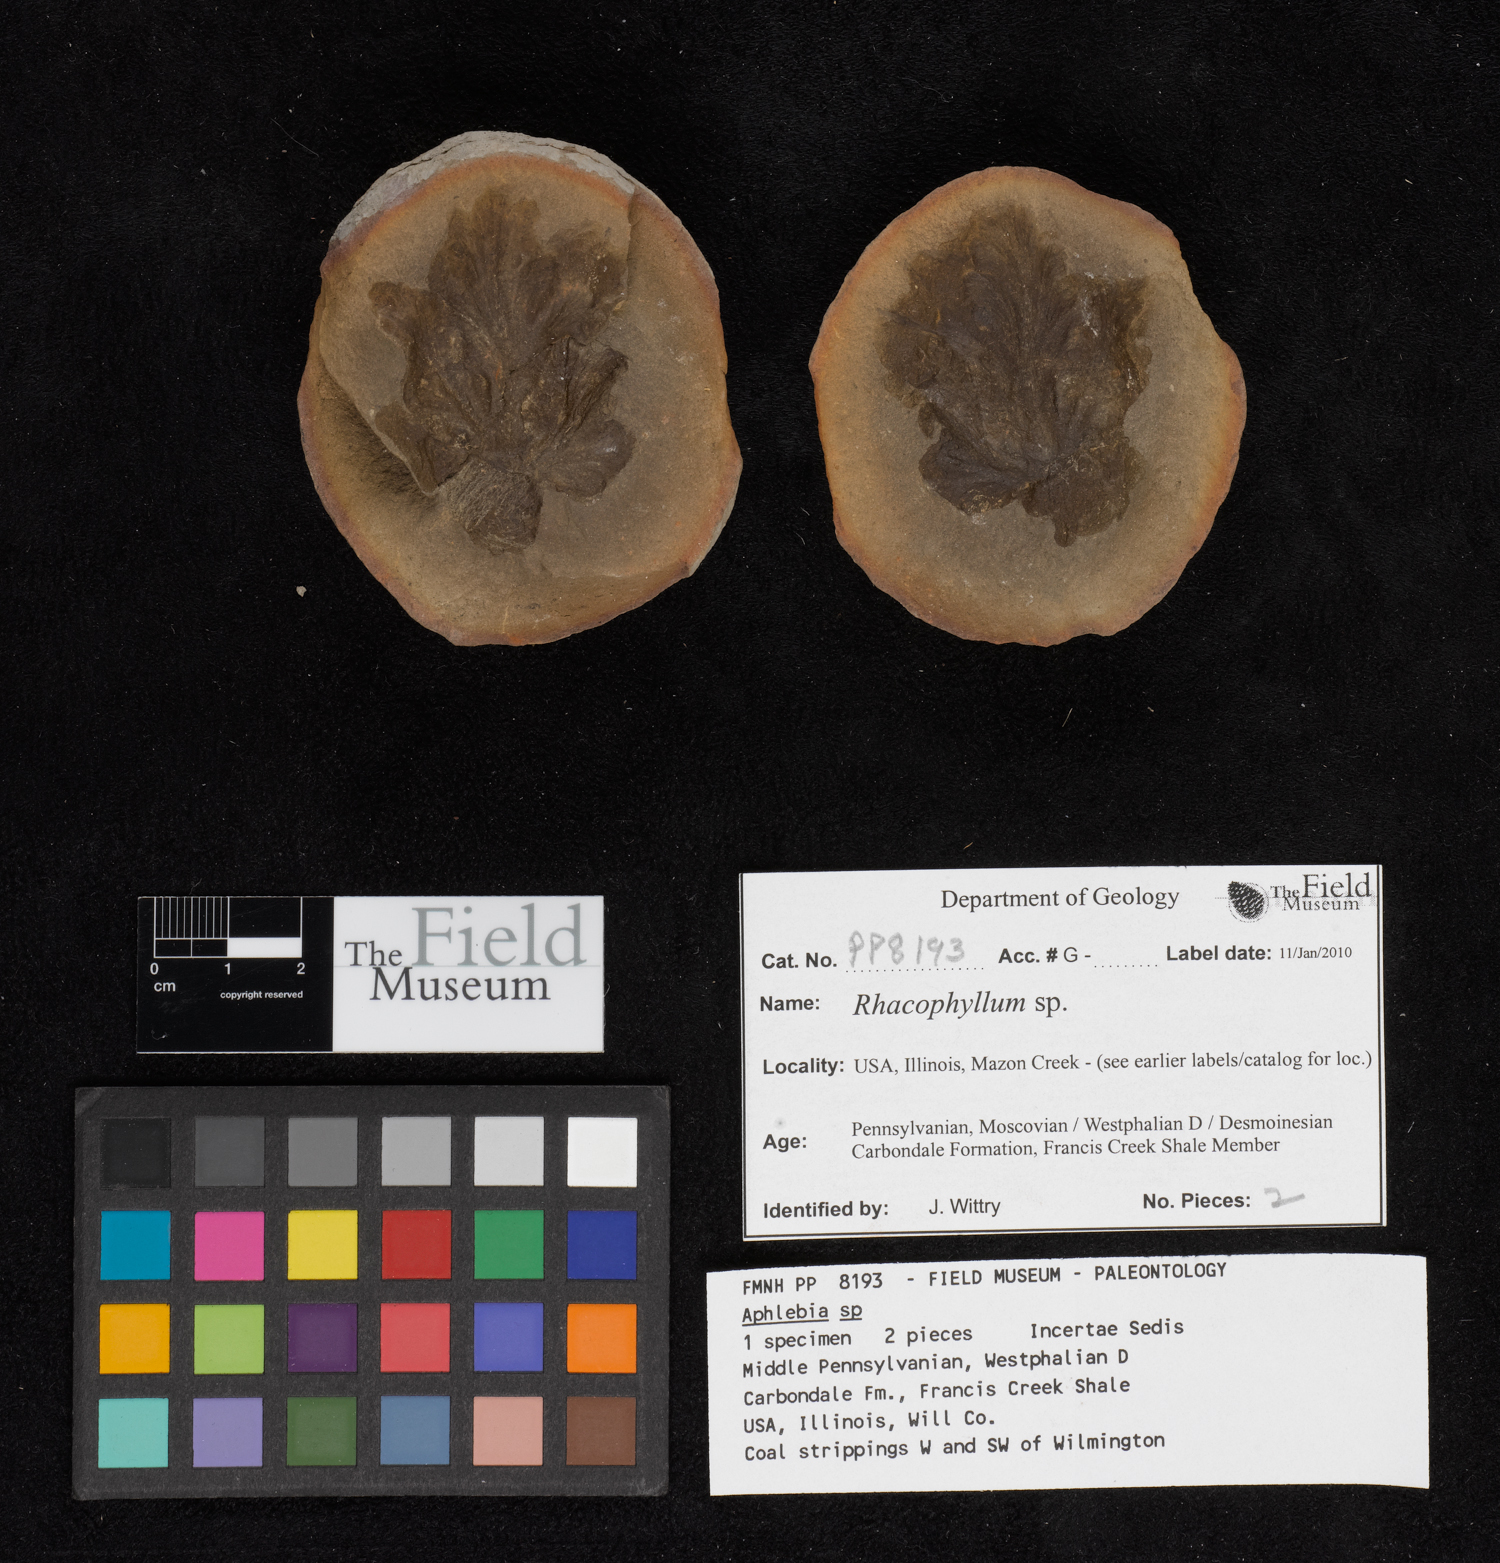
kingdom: Plantae
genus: Rhacophyllum
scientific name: Rhacophyllum
